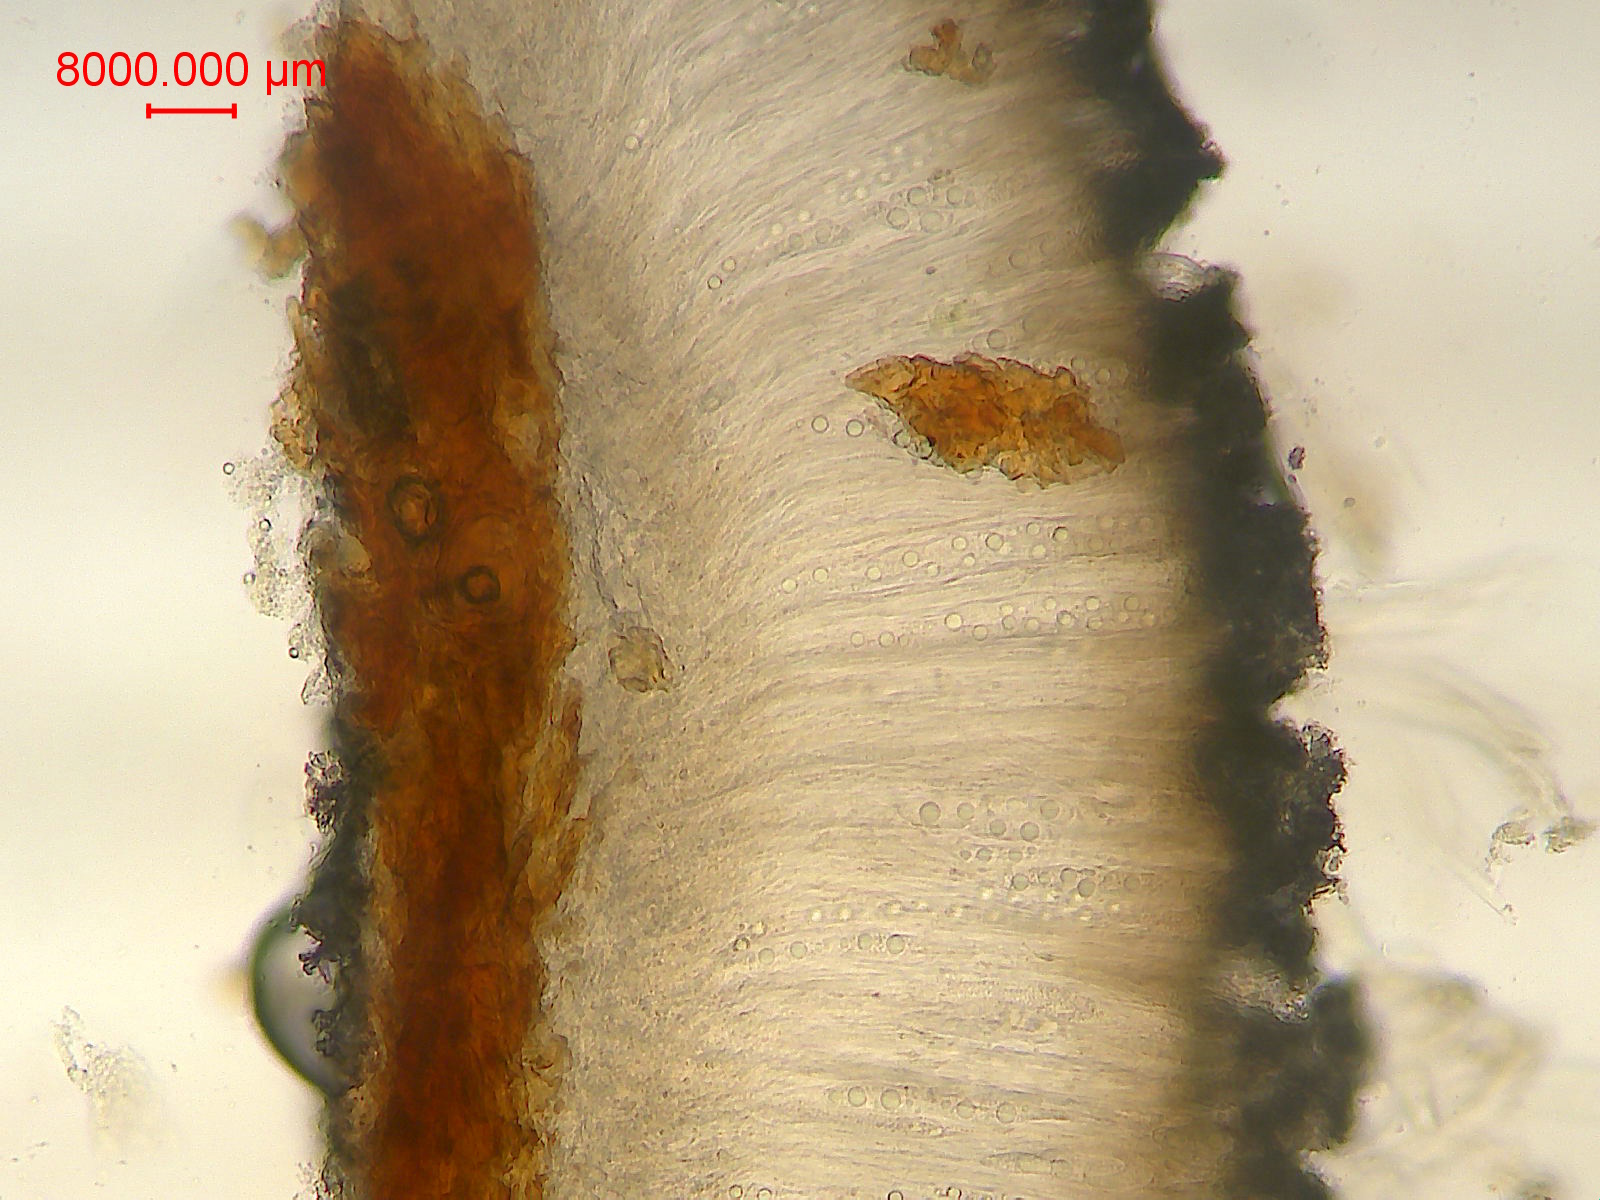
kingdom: Fungi
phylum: Ascomycota
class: Leotiomycetes
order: Chaetomellales
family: Marthamycetaceae
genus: Propolis
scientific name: Propolis farinosa
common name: almindelig vedsprængerskive
